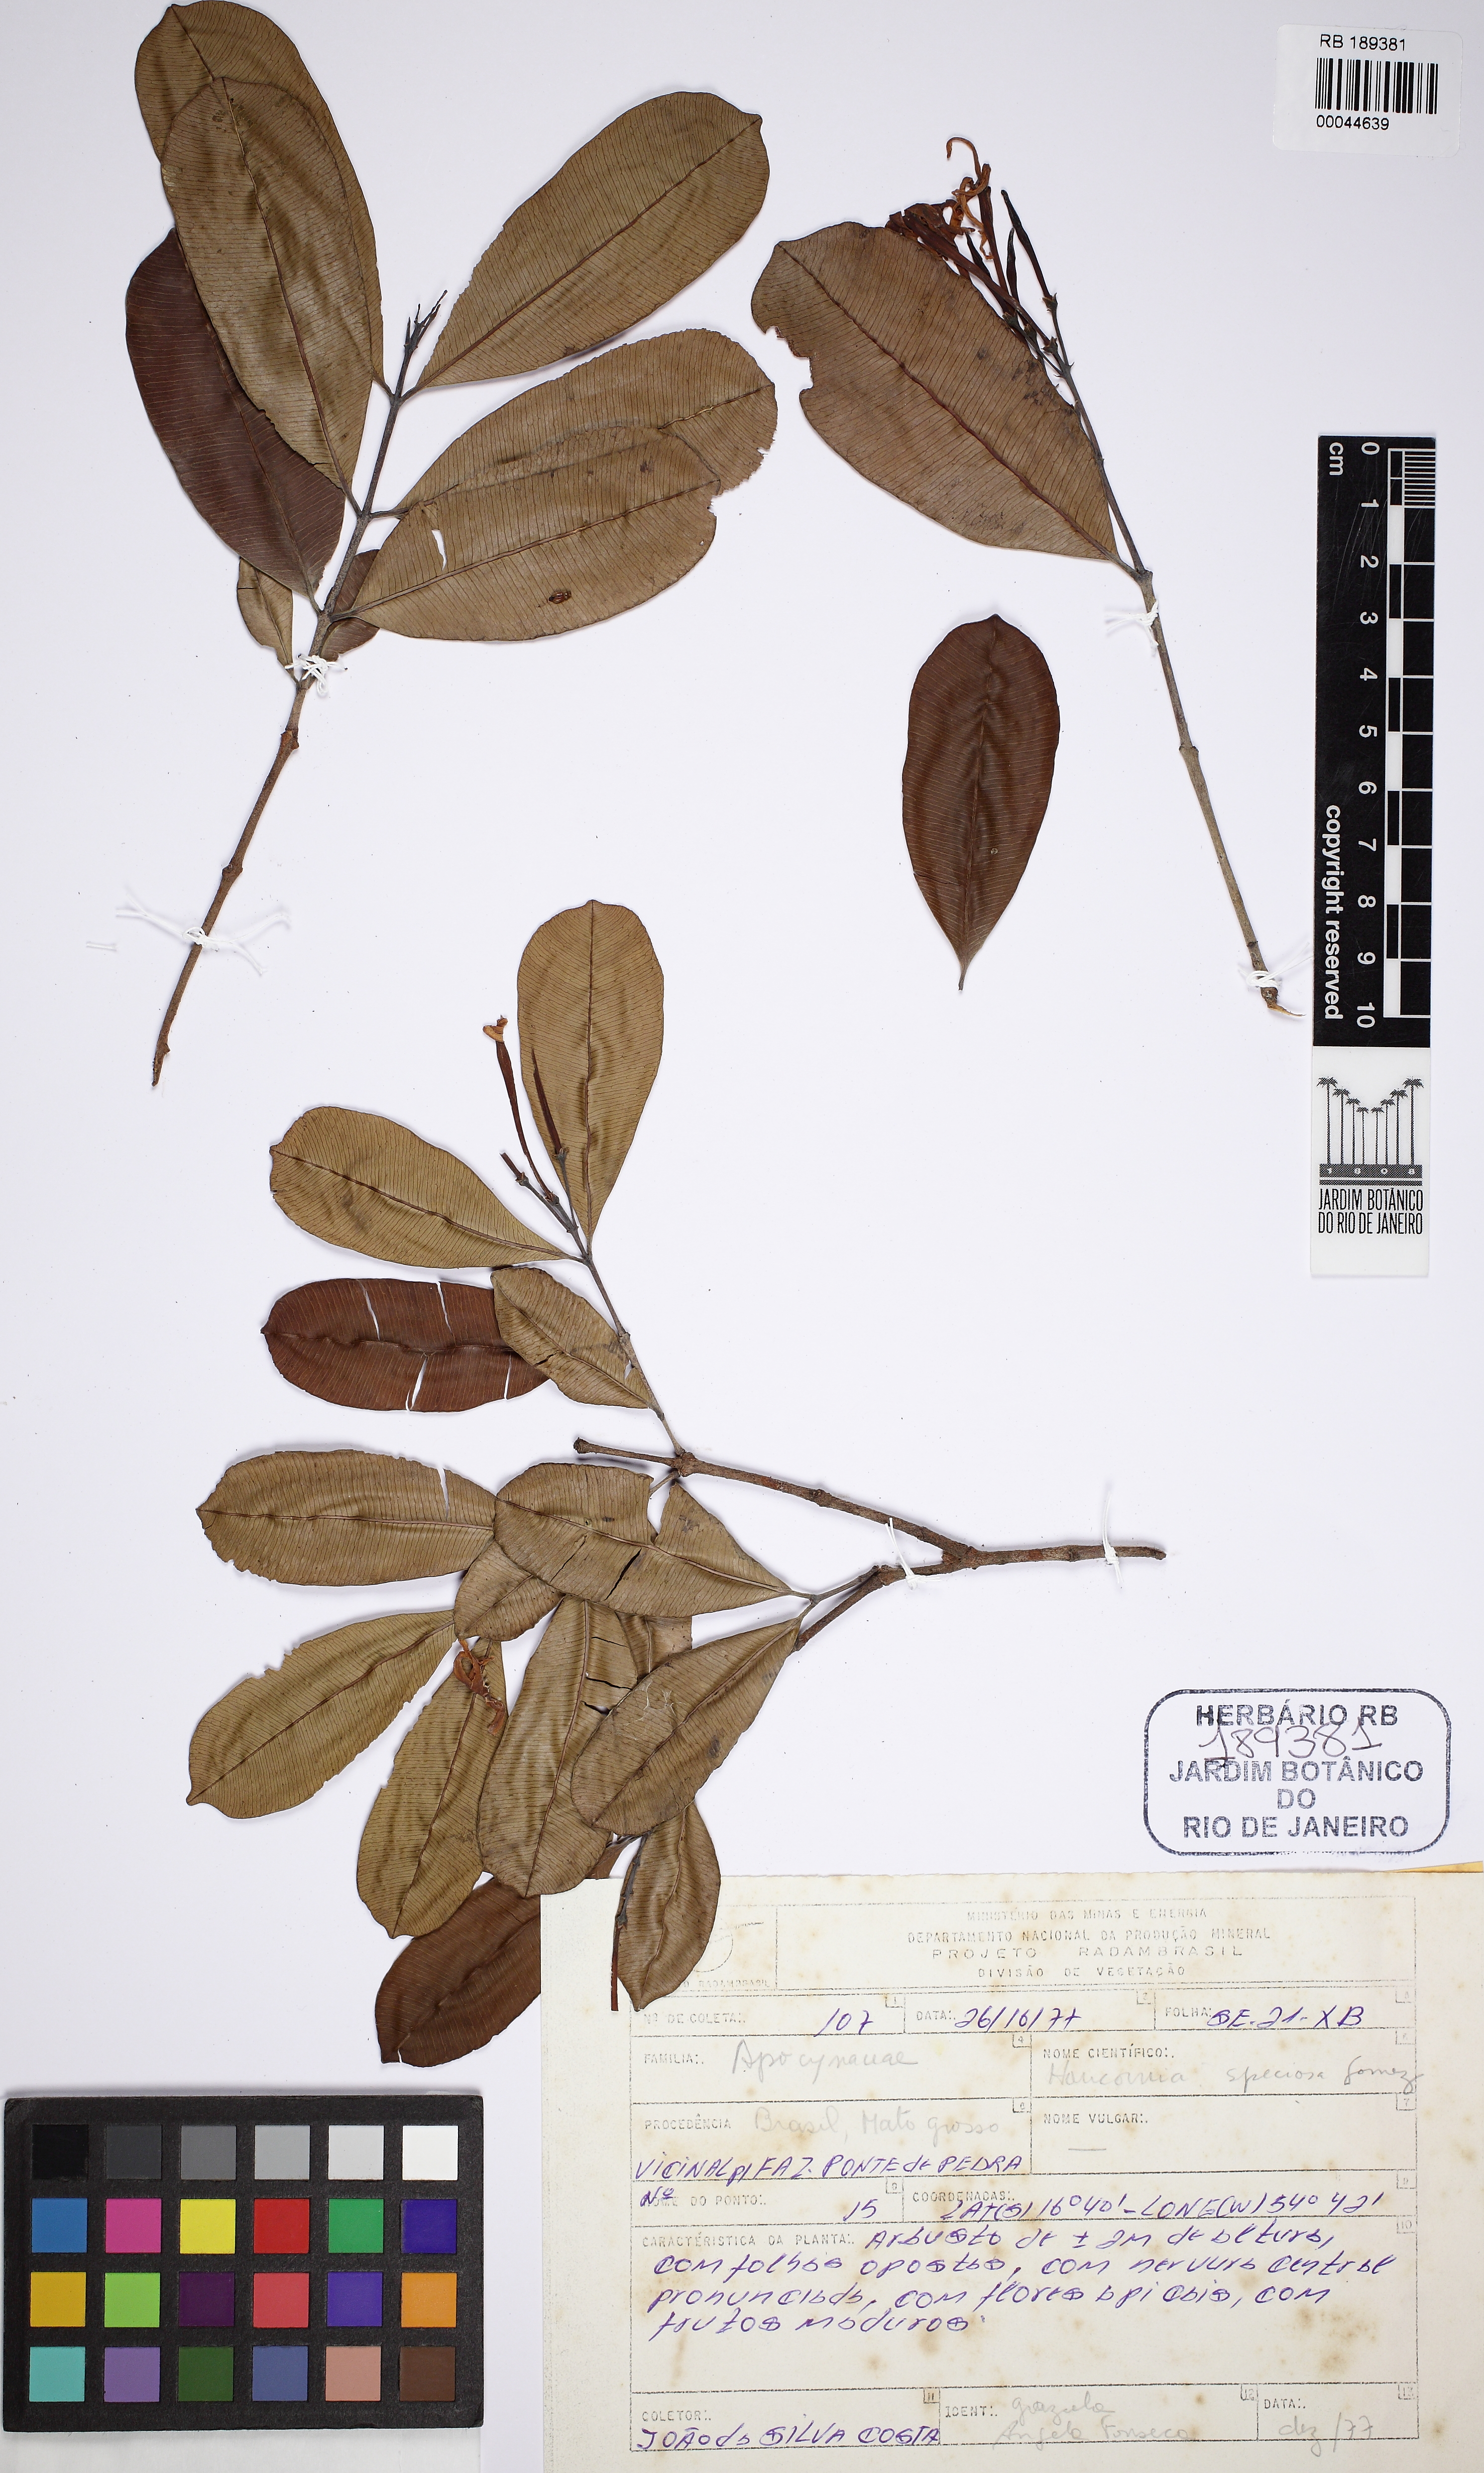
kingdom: Plantae
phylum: Tracheophyta
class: Magnoliopsida
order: Gentianales
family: Apocynaceae
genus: Hancornia
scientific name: Hancornia speciosa
